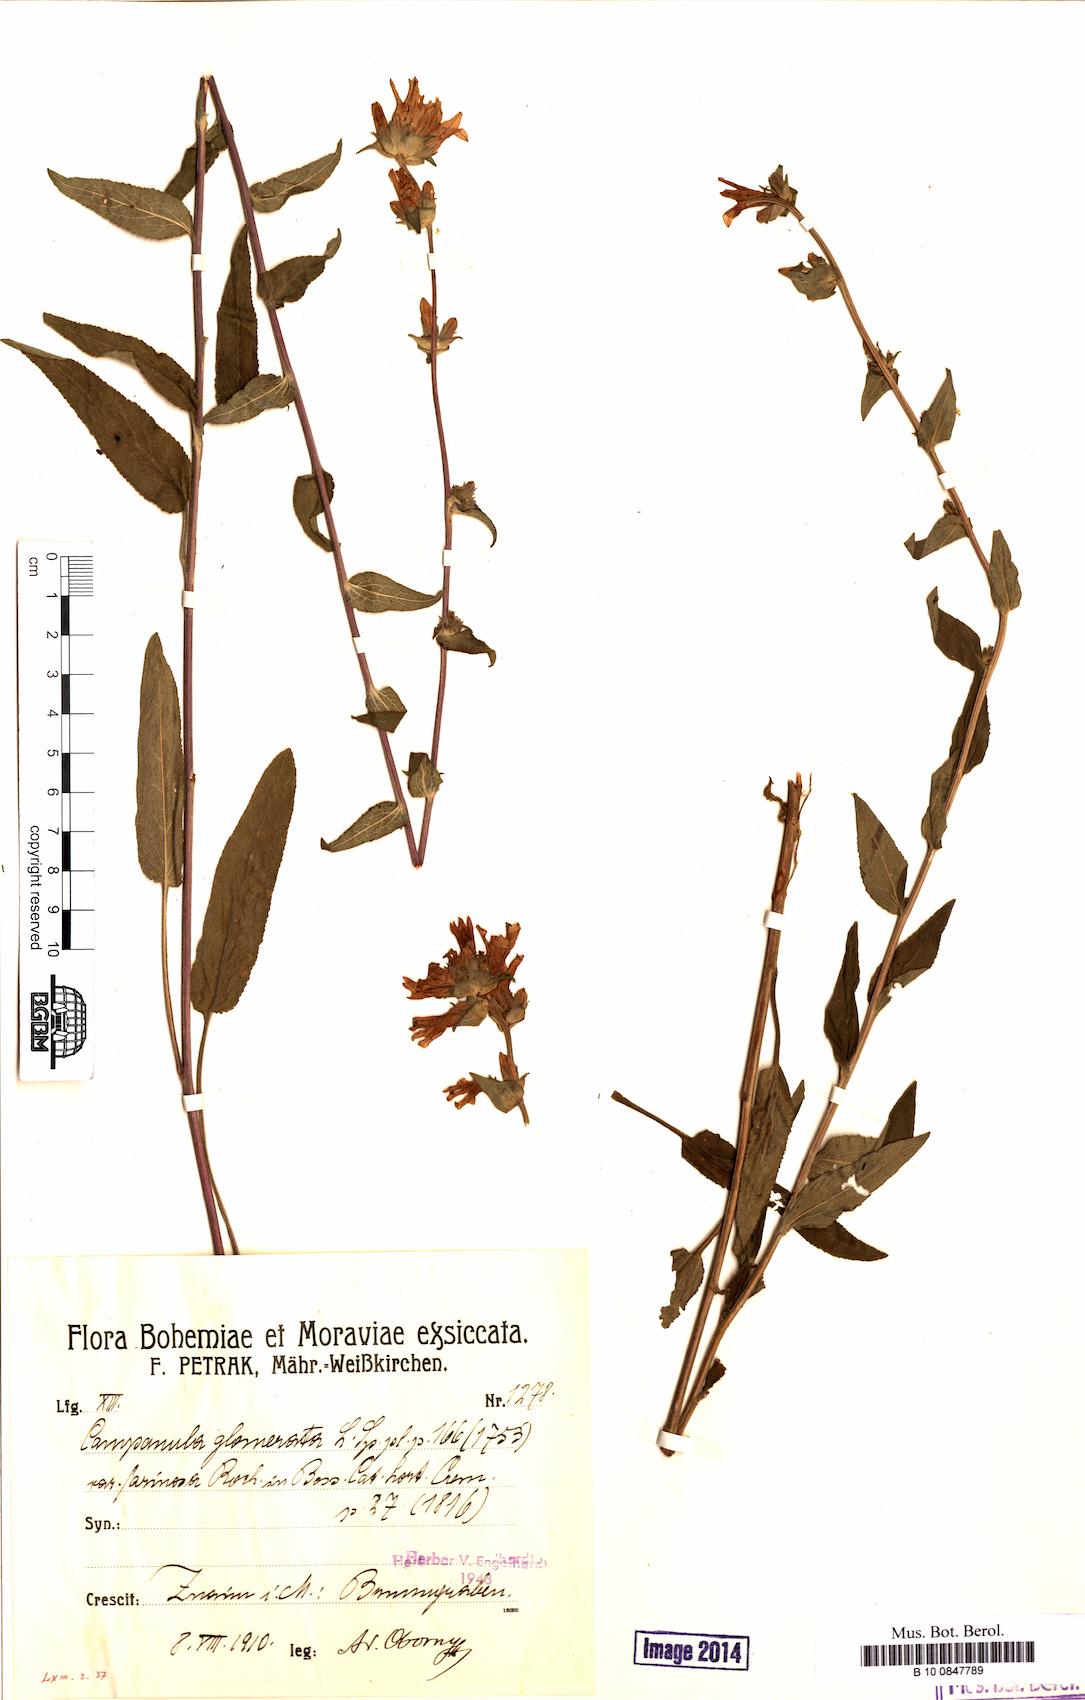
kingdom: Plantae
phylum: Tracheophyta
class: Magnoliopsida
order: Asterales
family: Campanulaceae
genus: Campanula
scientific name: Campanula glomerata
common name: Clustered bellflower
